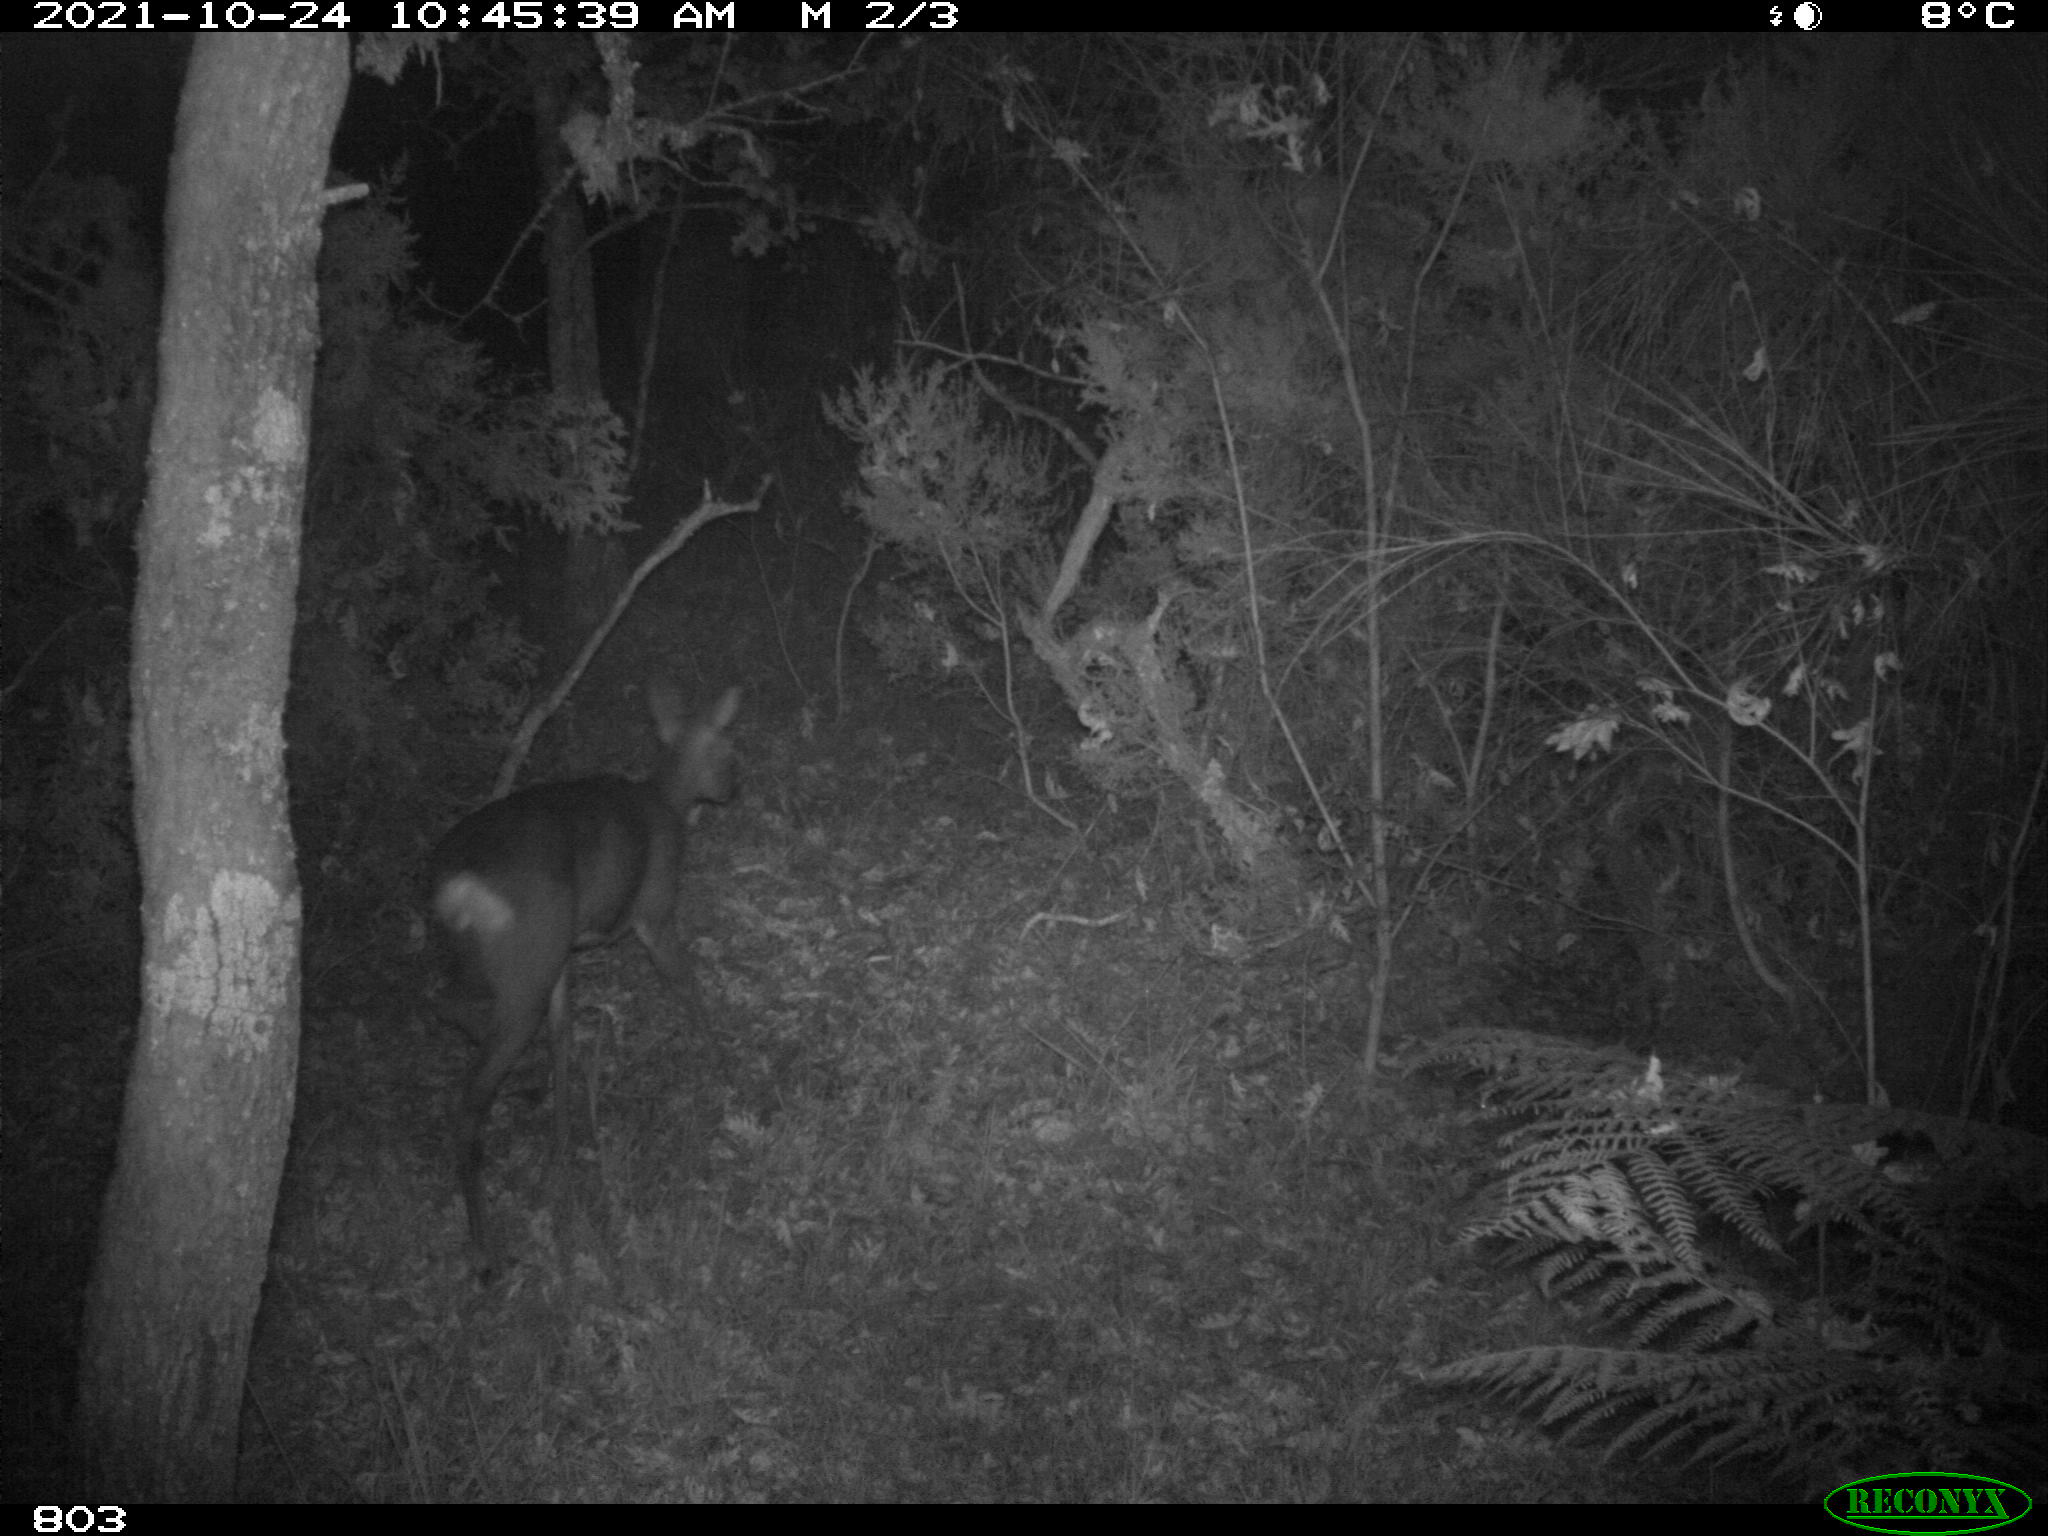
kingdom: Animalia
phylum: Chordata
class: Mammalia
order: Artiodactyla
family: Cervidae
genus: Capreolus
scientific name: Capreolus capreolus
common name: Western roe deer
